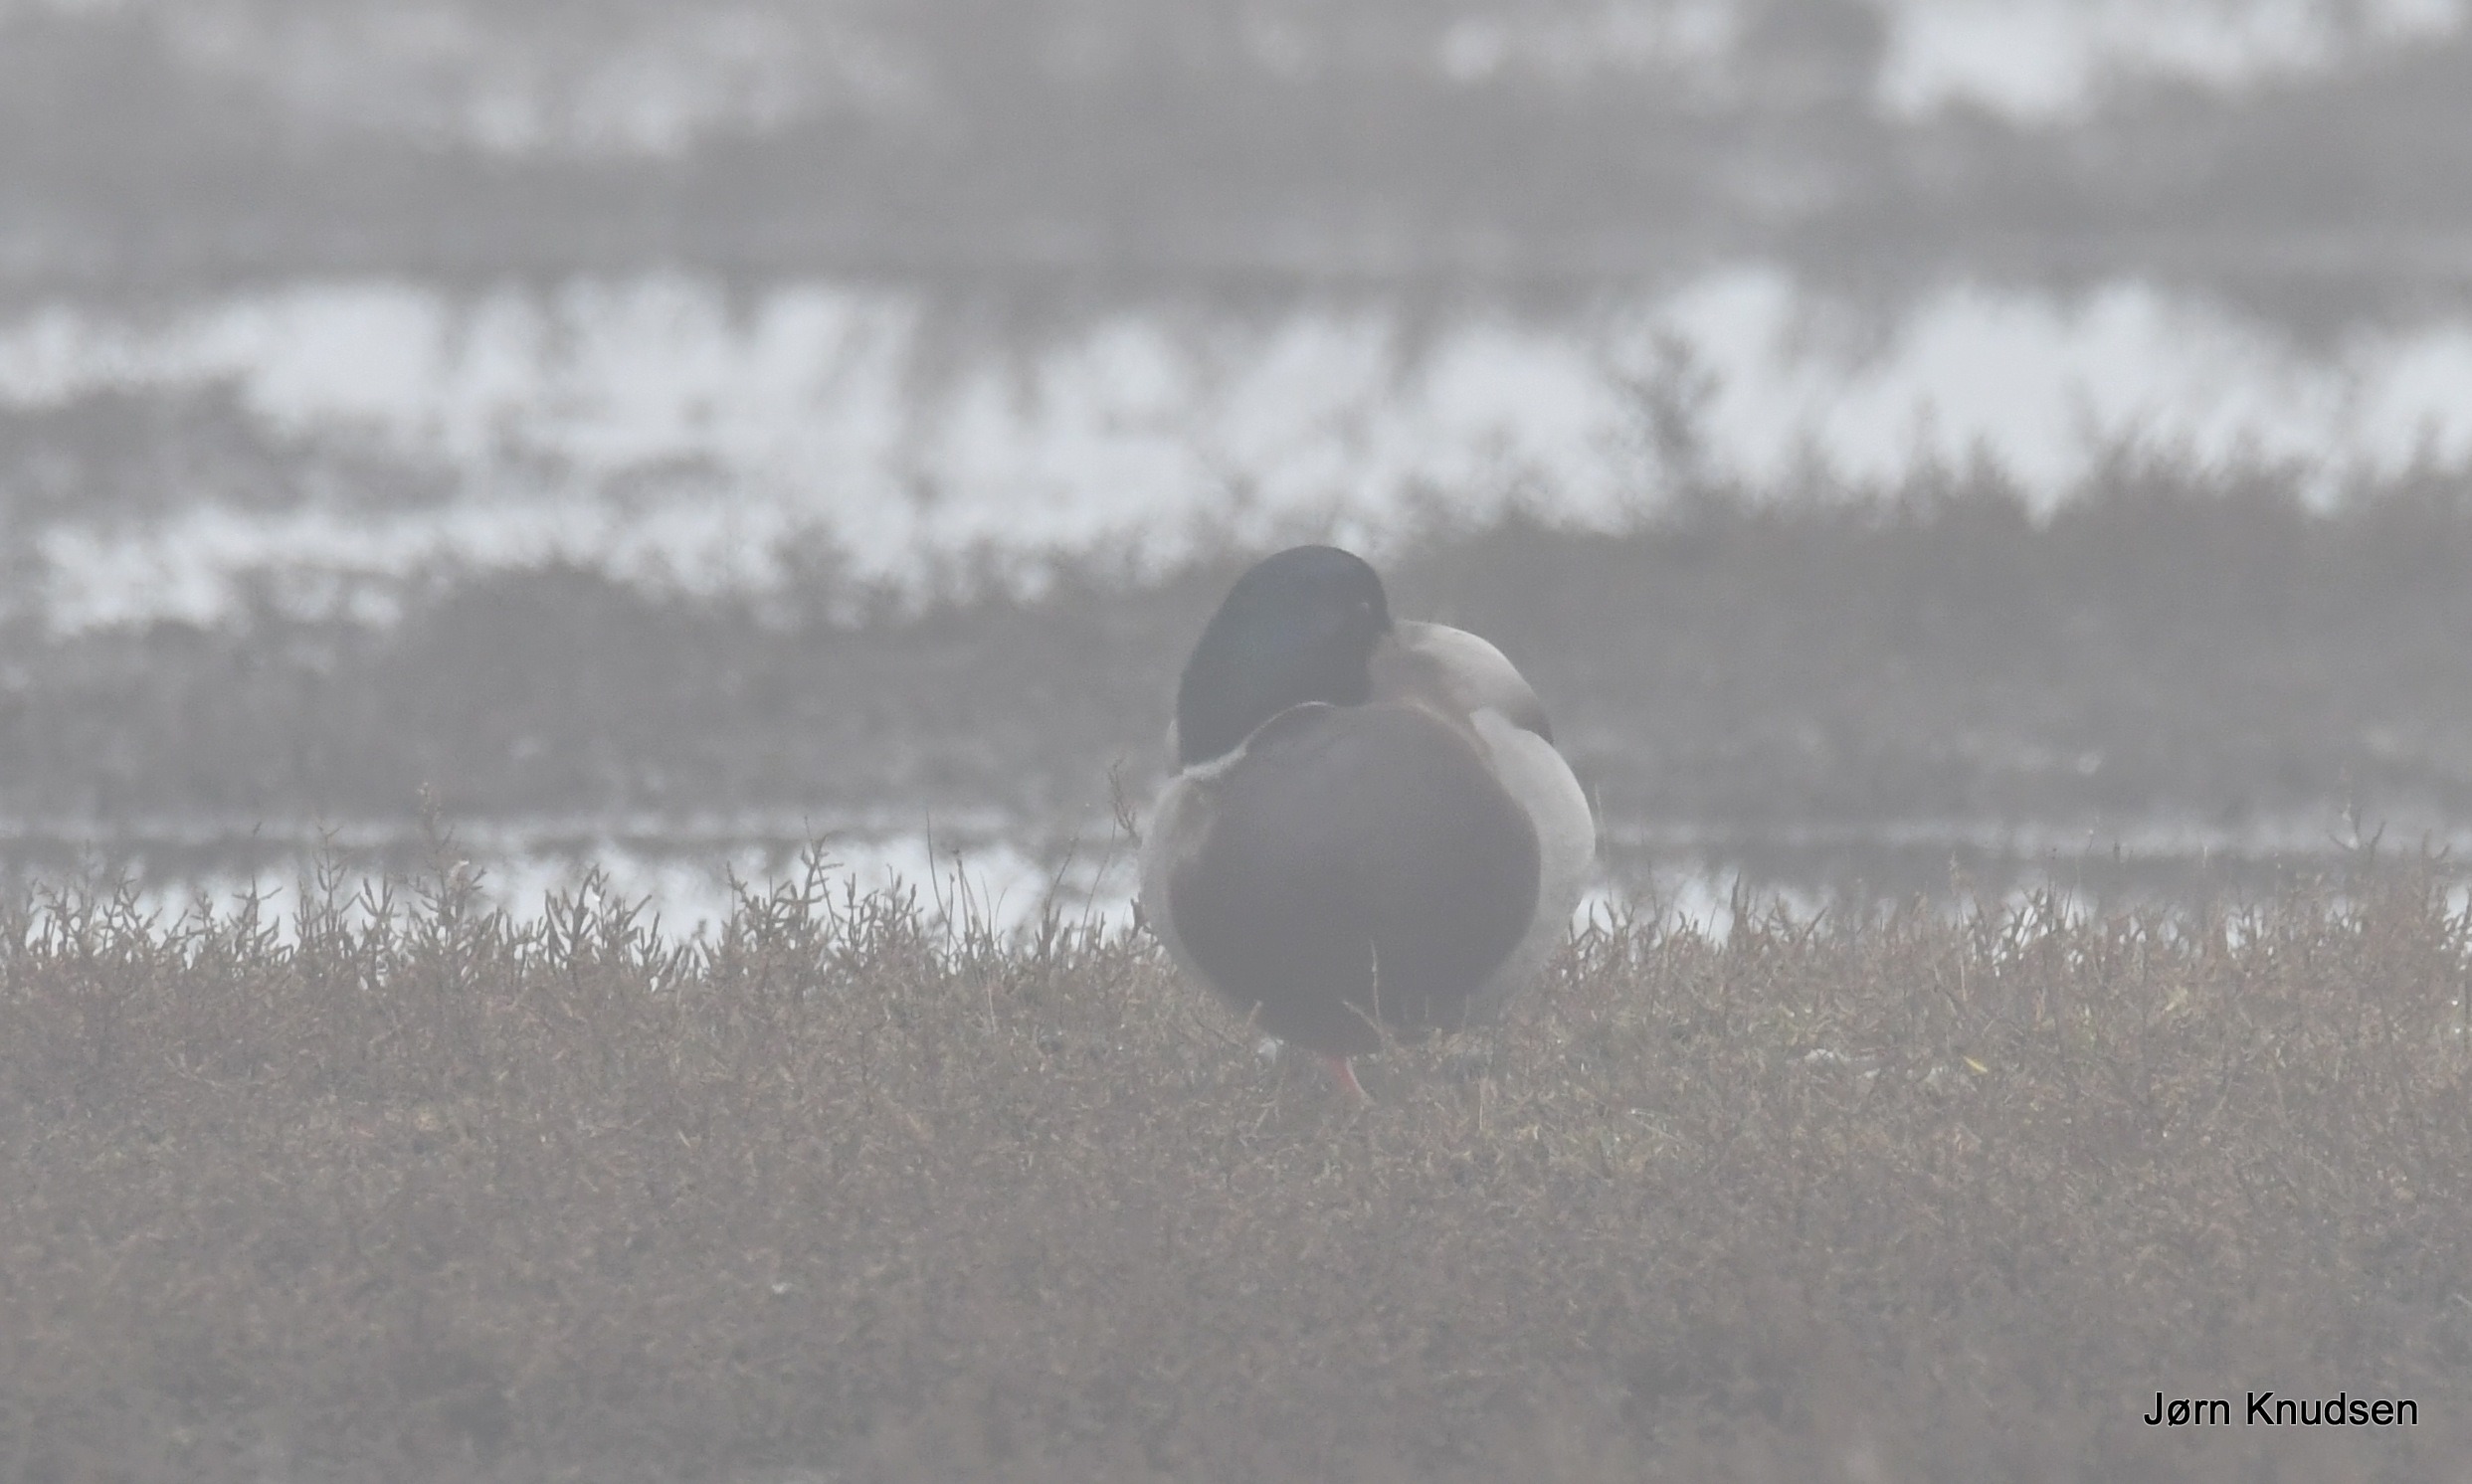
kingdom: Animalia
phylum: Chordata
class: Aves
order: Anseriformes
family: Anatidae
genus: Anas
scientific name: Anas platyrhynchos
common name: Gråand
